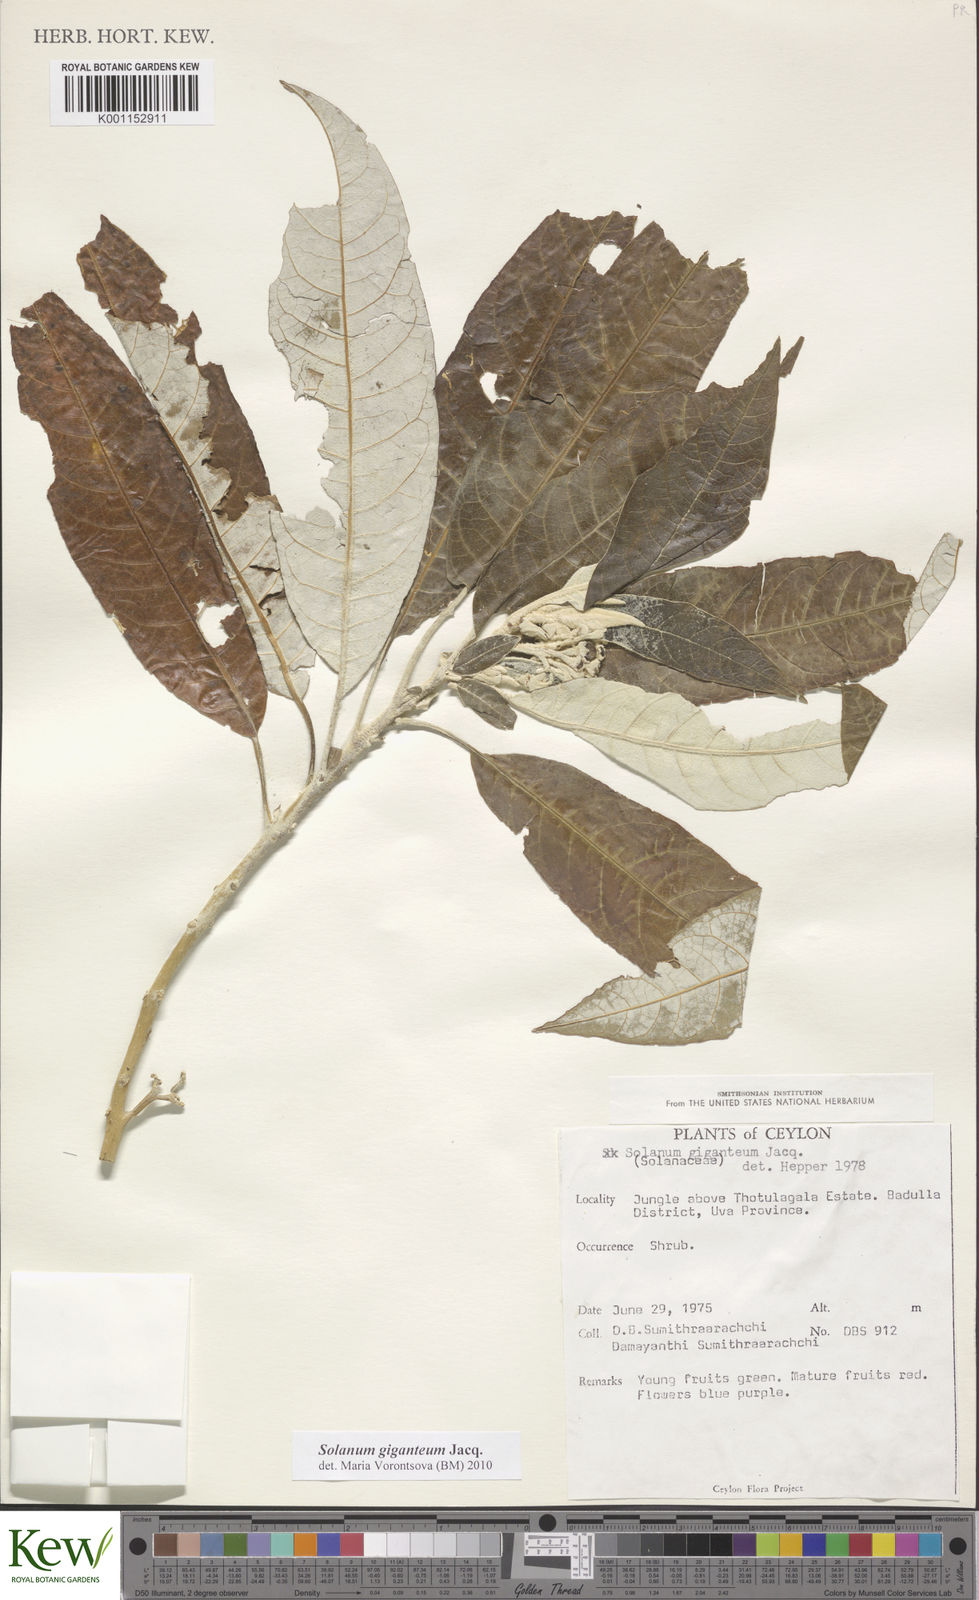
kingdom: Plantae
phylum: Tracheophyta
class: Magnoliopsida
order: Solanales
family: Solanaceae
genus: Solanum
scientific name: Solanum giganteum
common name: Healing-leaf-tree
